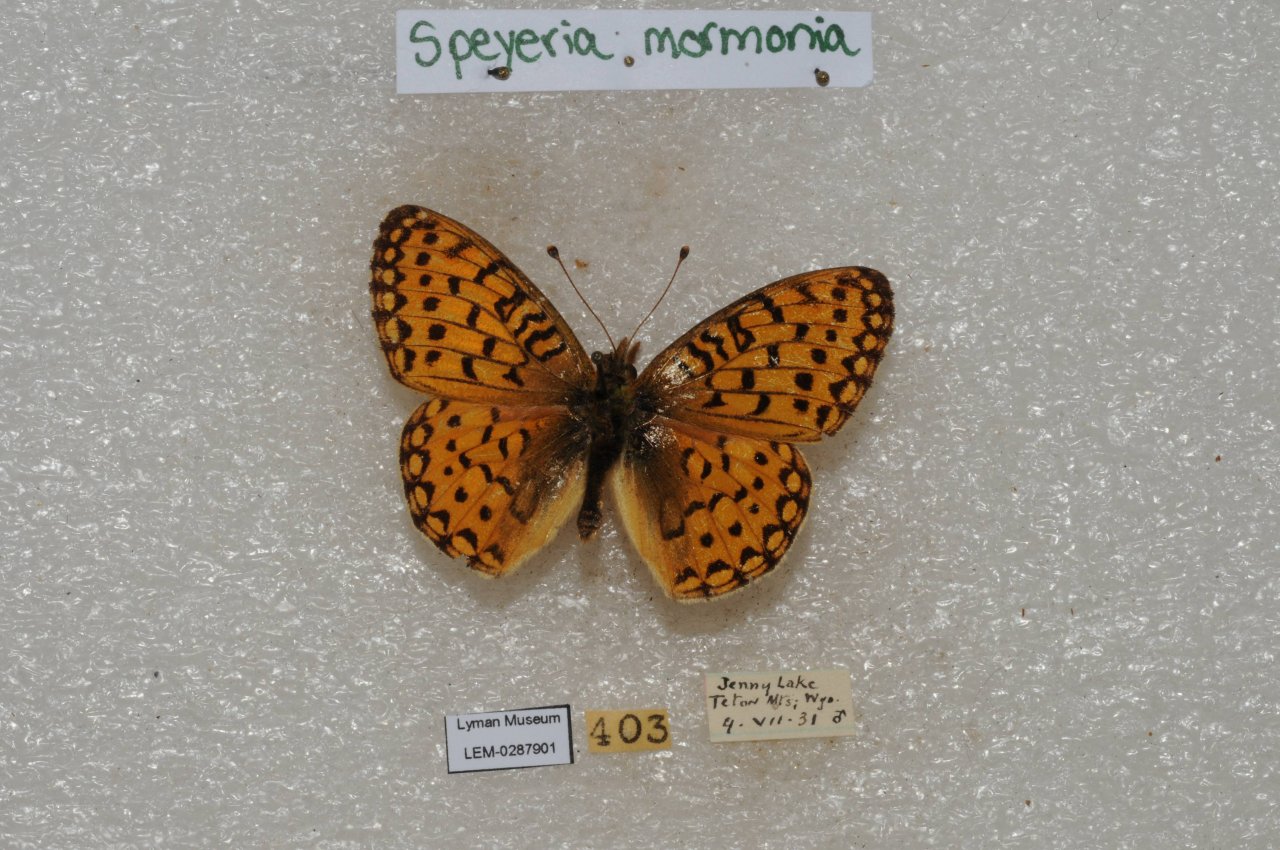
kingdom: Animalia
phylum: Arthropoda
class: Insecta
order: Lepidoptera
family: Nymphalidae
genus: Speyeria
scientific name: Speyeria mormonia
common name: Mormon Fritillary
